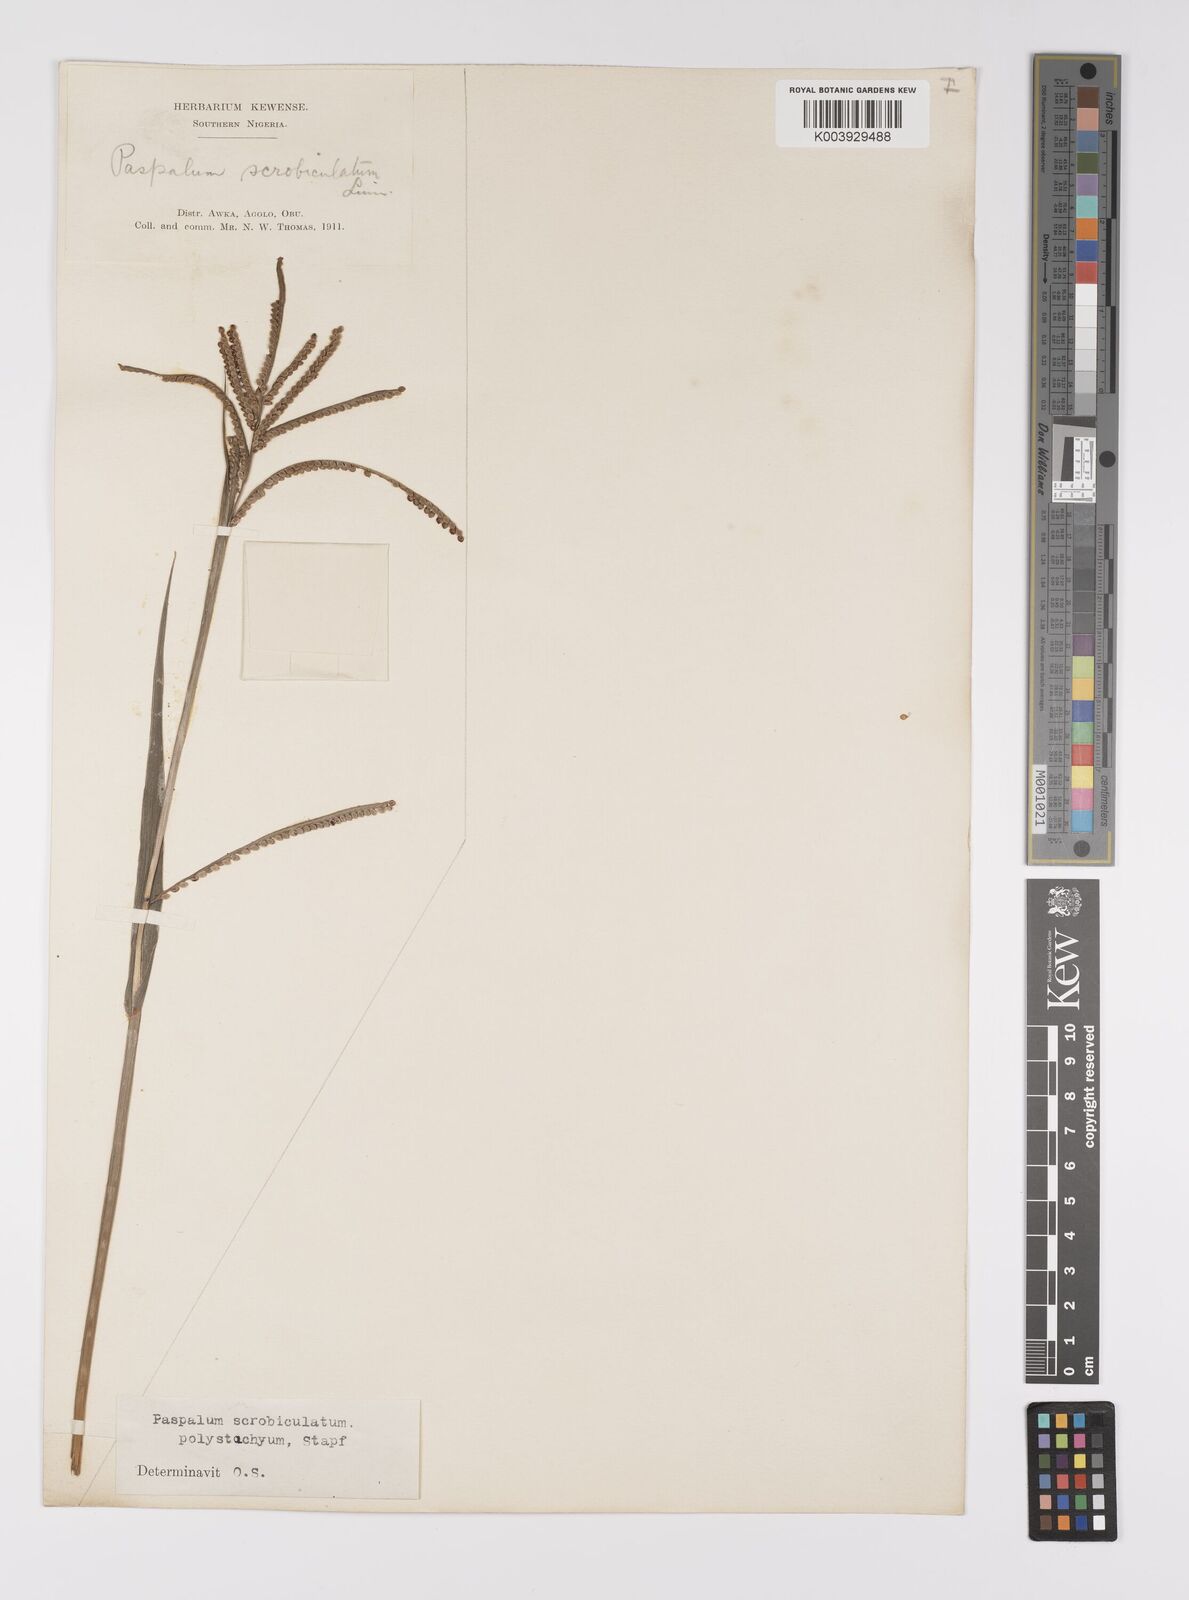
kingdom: Plantae
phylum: Tracheophyta
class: Liliopsida
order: Poales
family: Poaceae
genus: Paspalum
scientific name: Paspalum scrobiculatum
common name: Kodo millet
